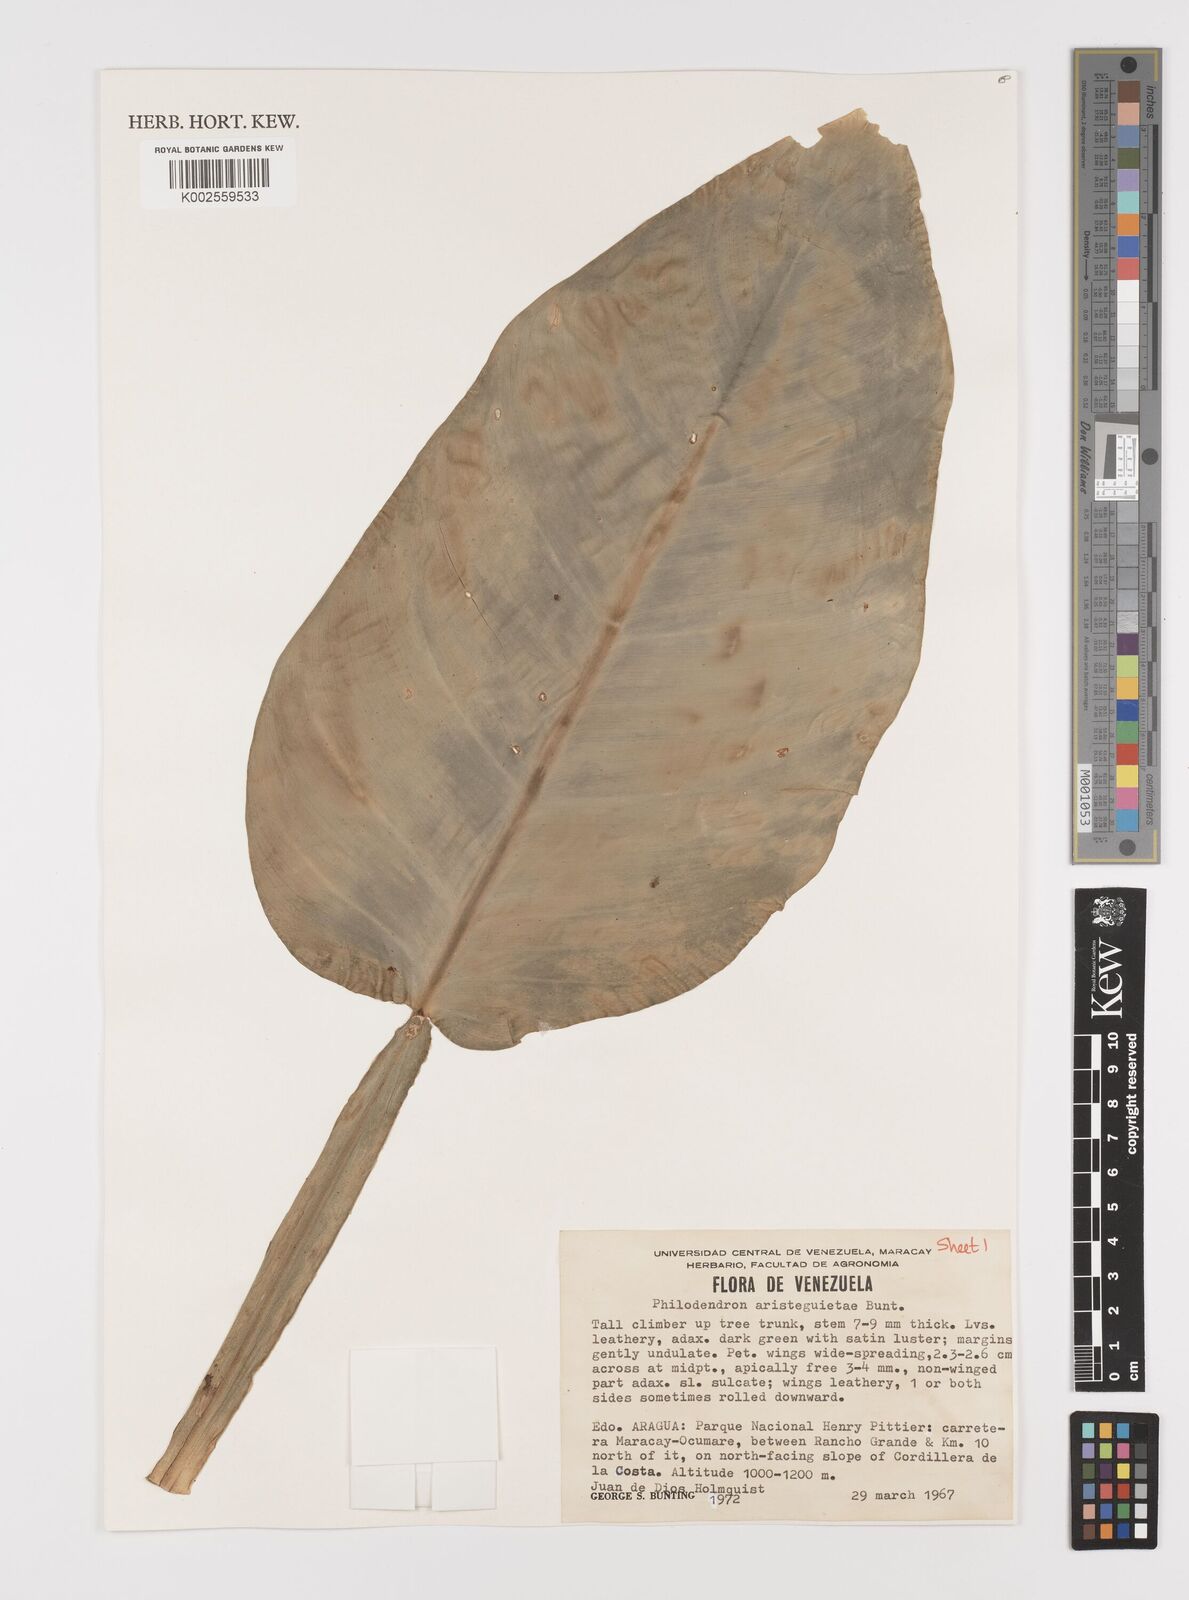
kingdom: Plantae
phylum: Tracheophyta
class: Liliopsida
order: Alismatales
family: Araceae
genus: Philodendron
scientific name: Philodendron aristeguietae
